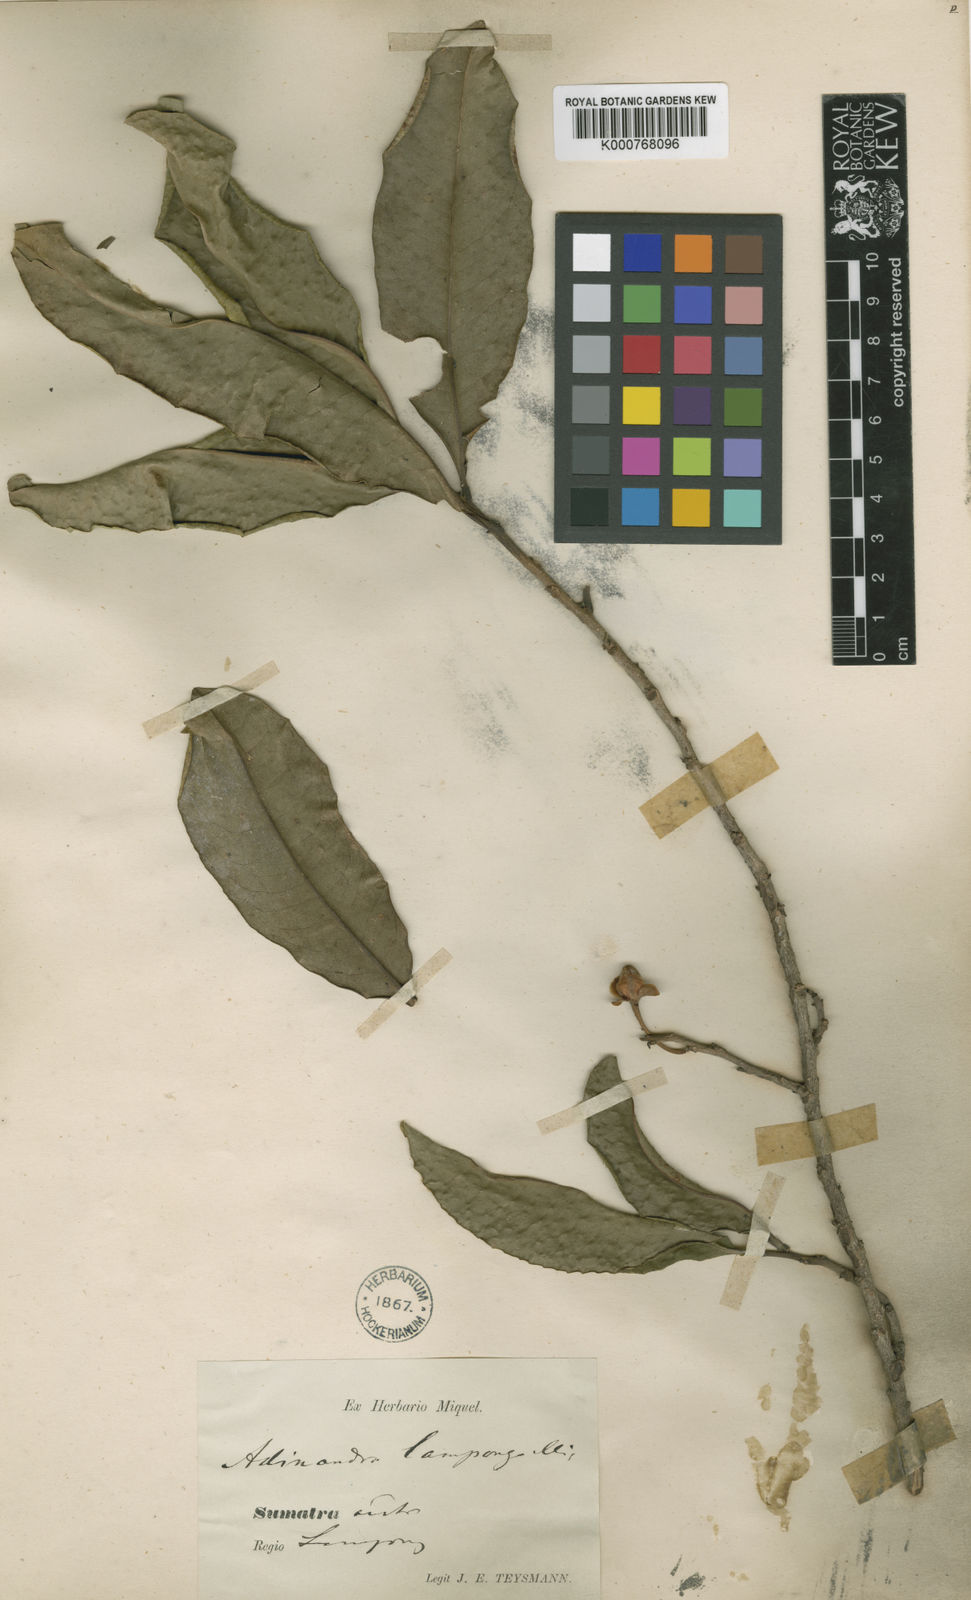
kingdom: Plantae
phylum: Tracheophyta
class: Magnoliopsida
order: Ericales
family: Pentaphylacaceae
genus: Adinandra
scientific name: Adinandra sarosanthera
